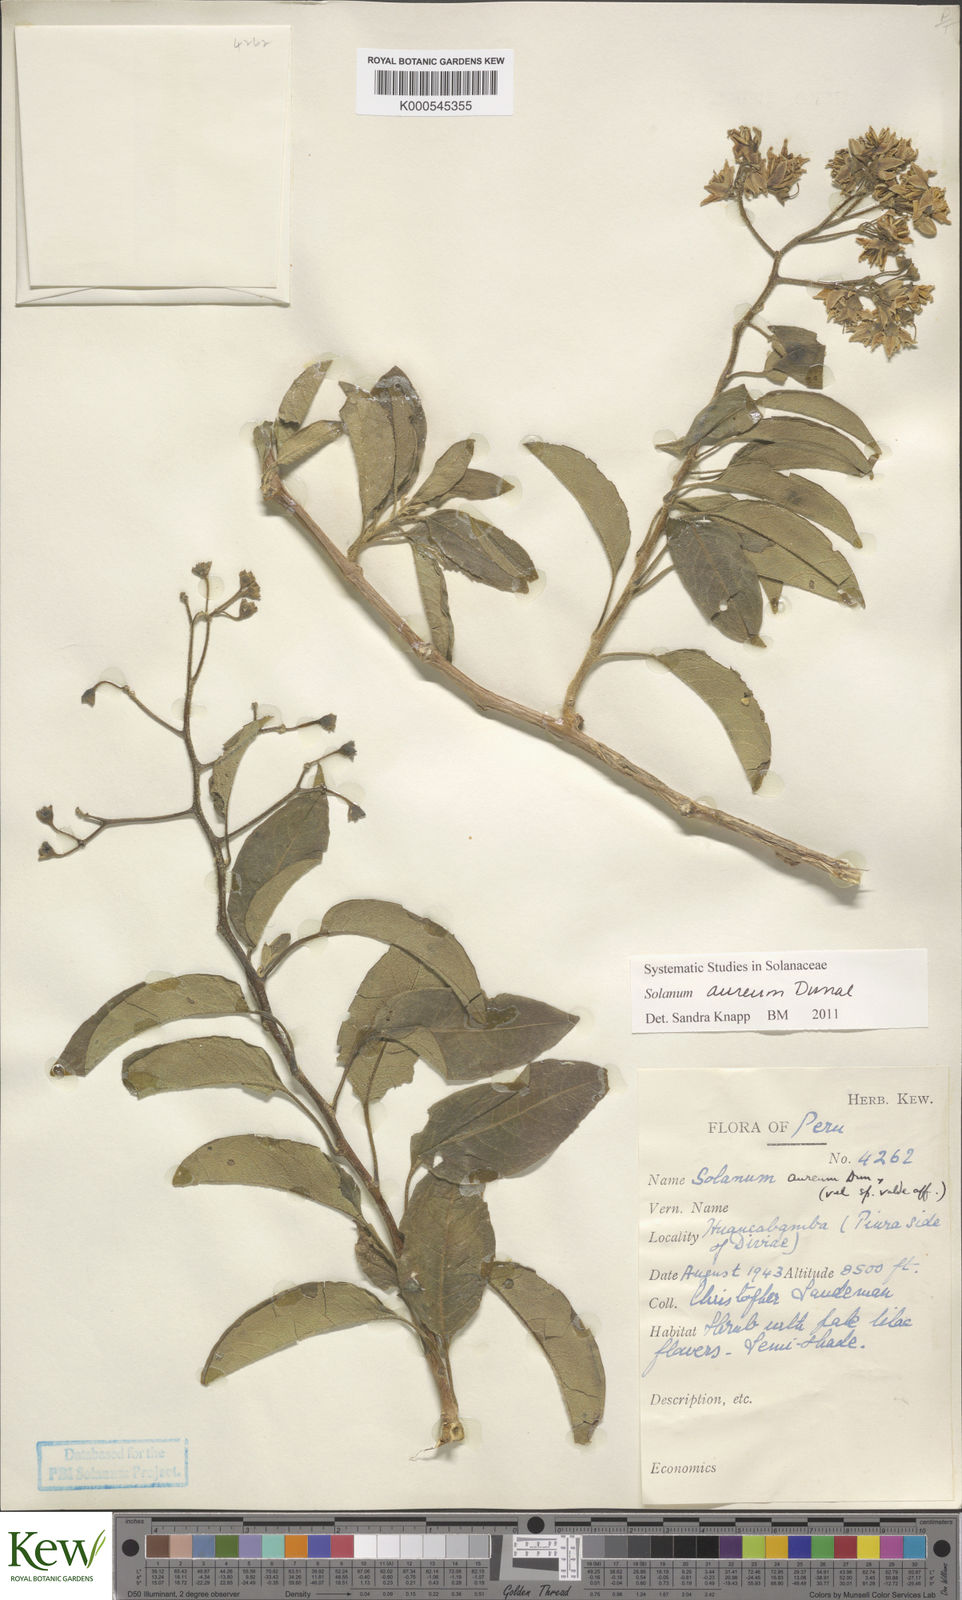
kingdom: Plantae
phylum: Tracheophyta
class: Magnoliopsida
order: Solanales
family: Solanaceae
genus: Solanum
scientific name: Solanum aureum
